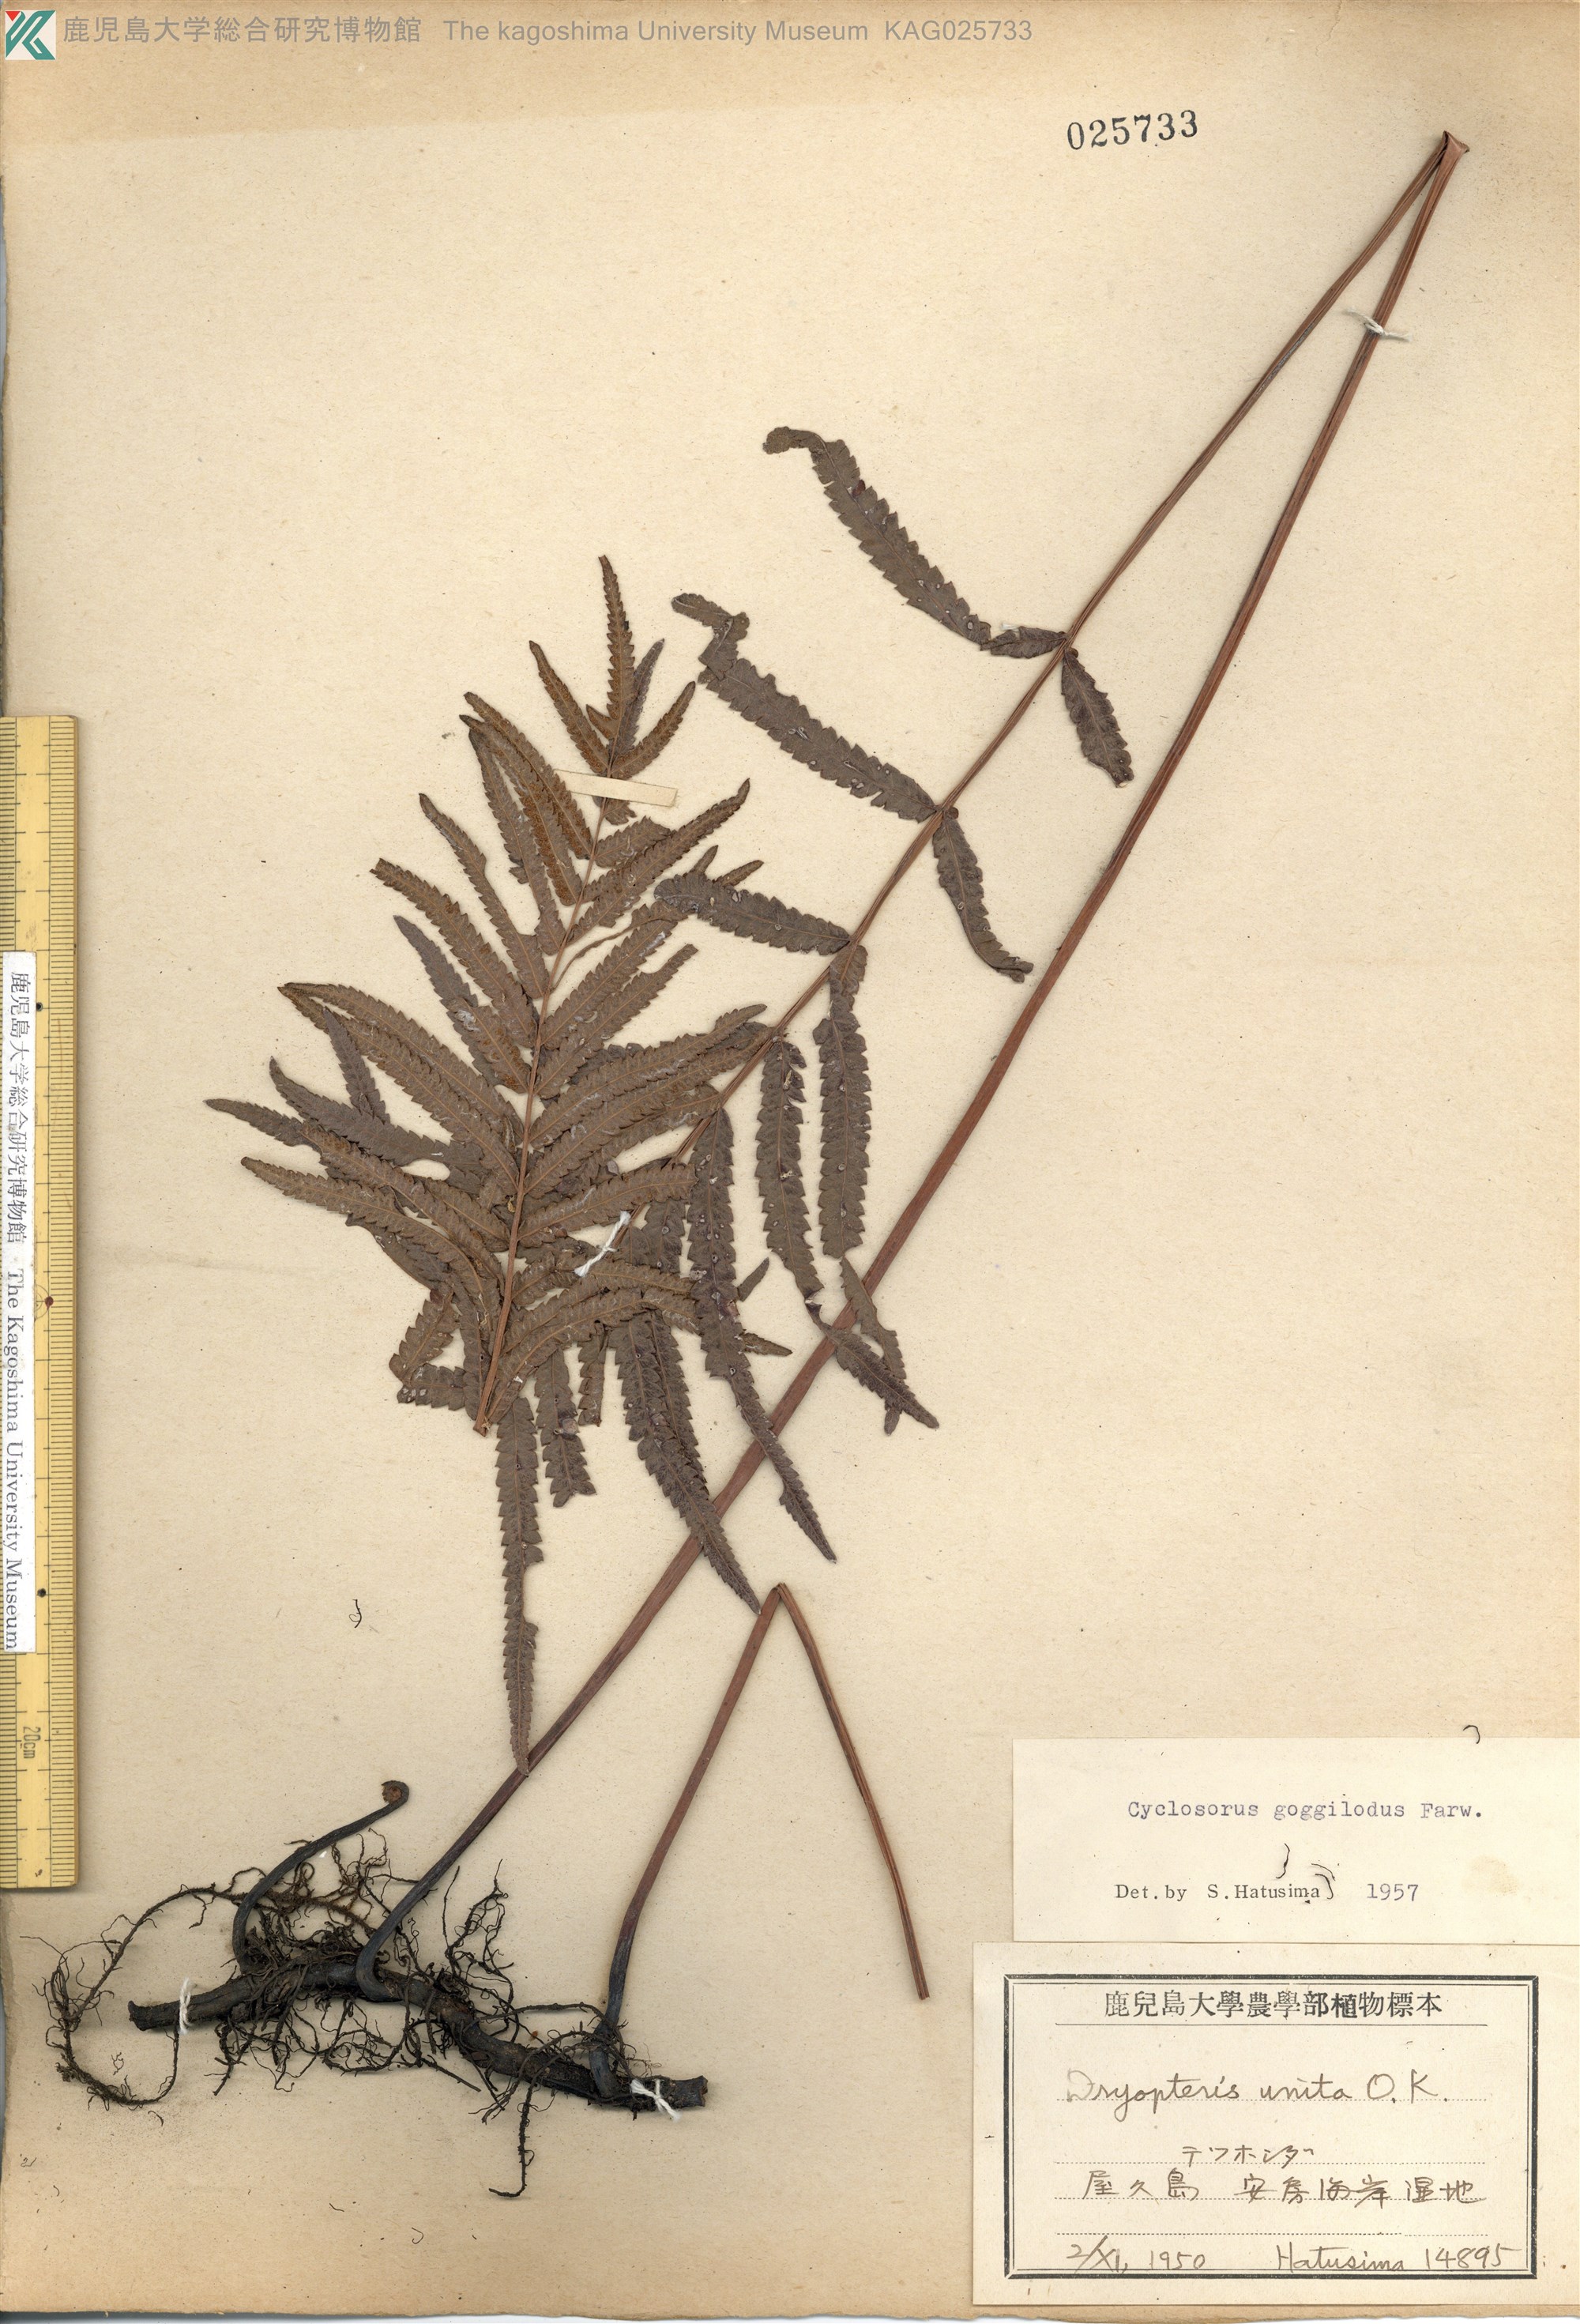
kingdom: Plantae
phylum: Tracheophyta
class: Polypodiopsida
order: Polypodiales
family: Thelypteridaceae
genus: Cyclosorus
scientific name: Cyclosorus interruptus
